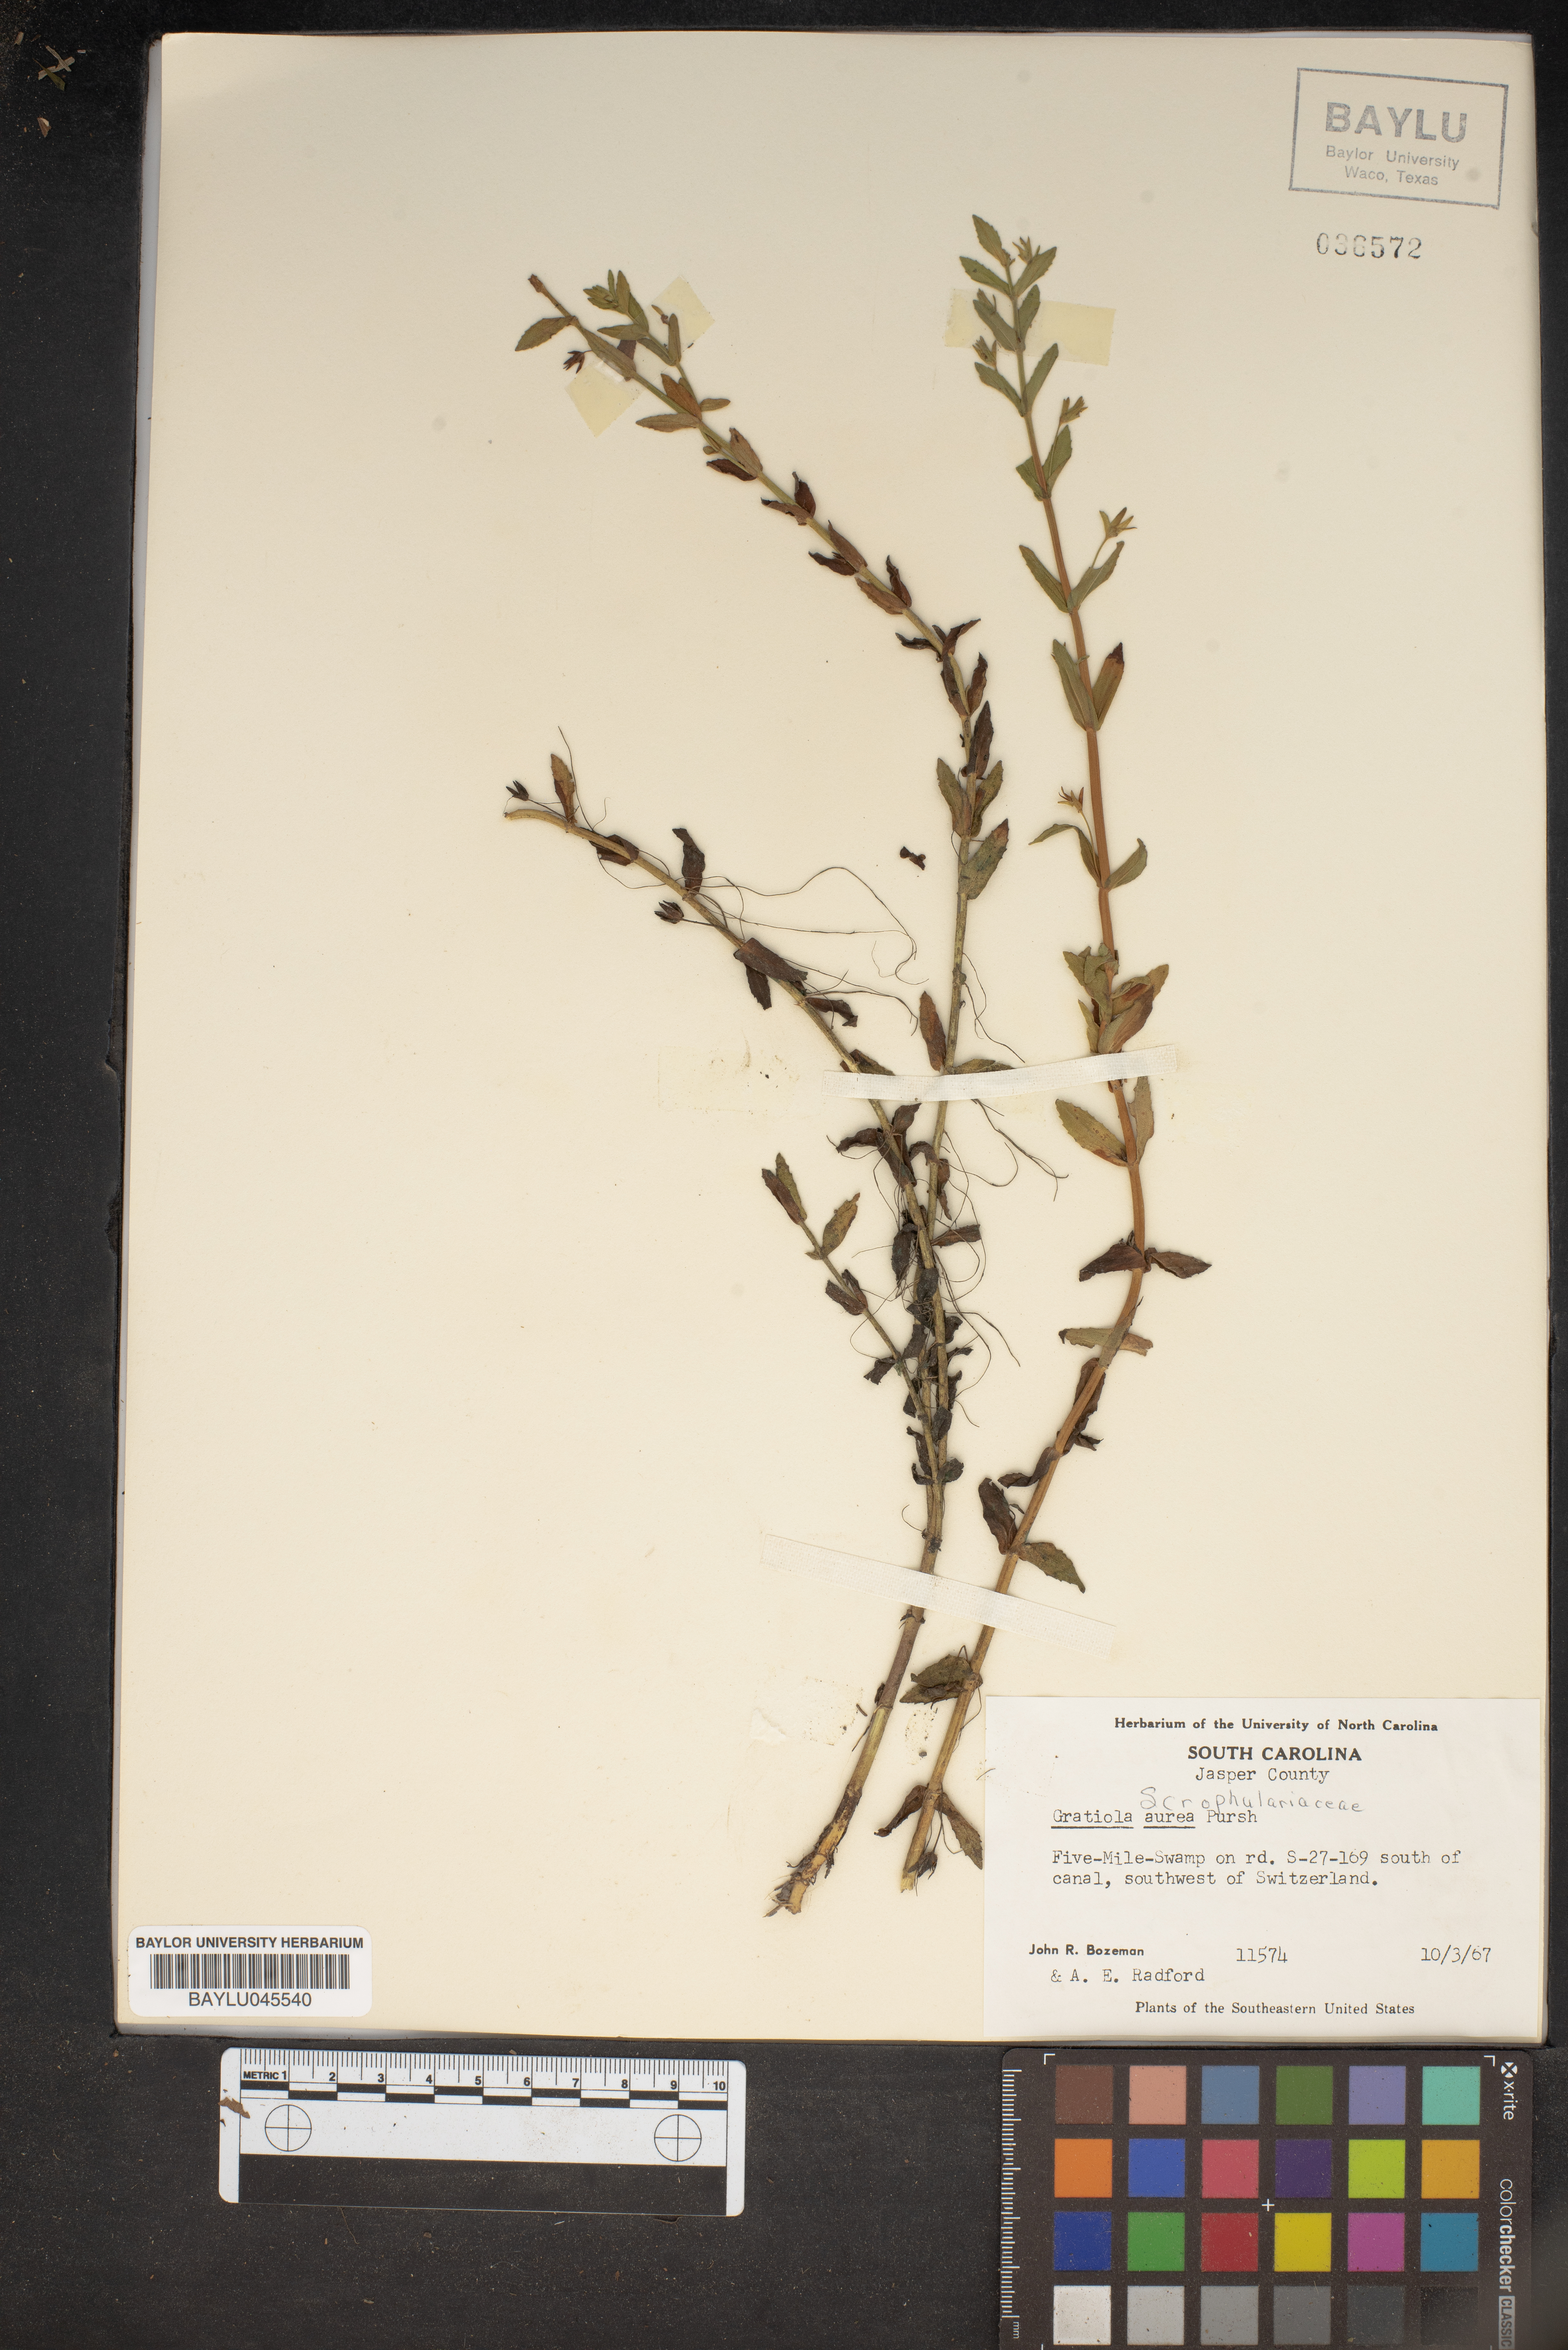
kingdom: Plantae
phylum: Tracheophyta
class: Magnoliopsida
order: Lamiales
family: Plantaginaceae
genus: Gratiola
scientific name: Gratiola lutea
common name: Golden hedge-hyssop
